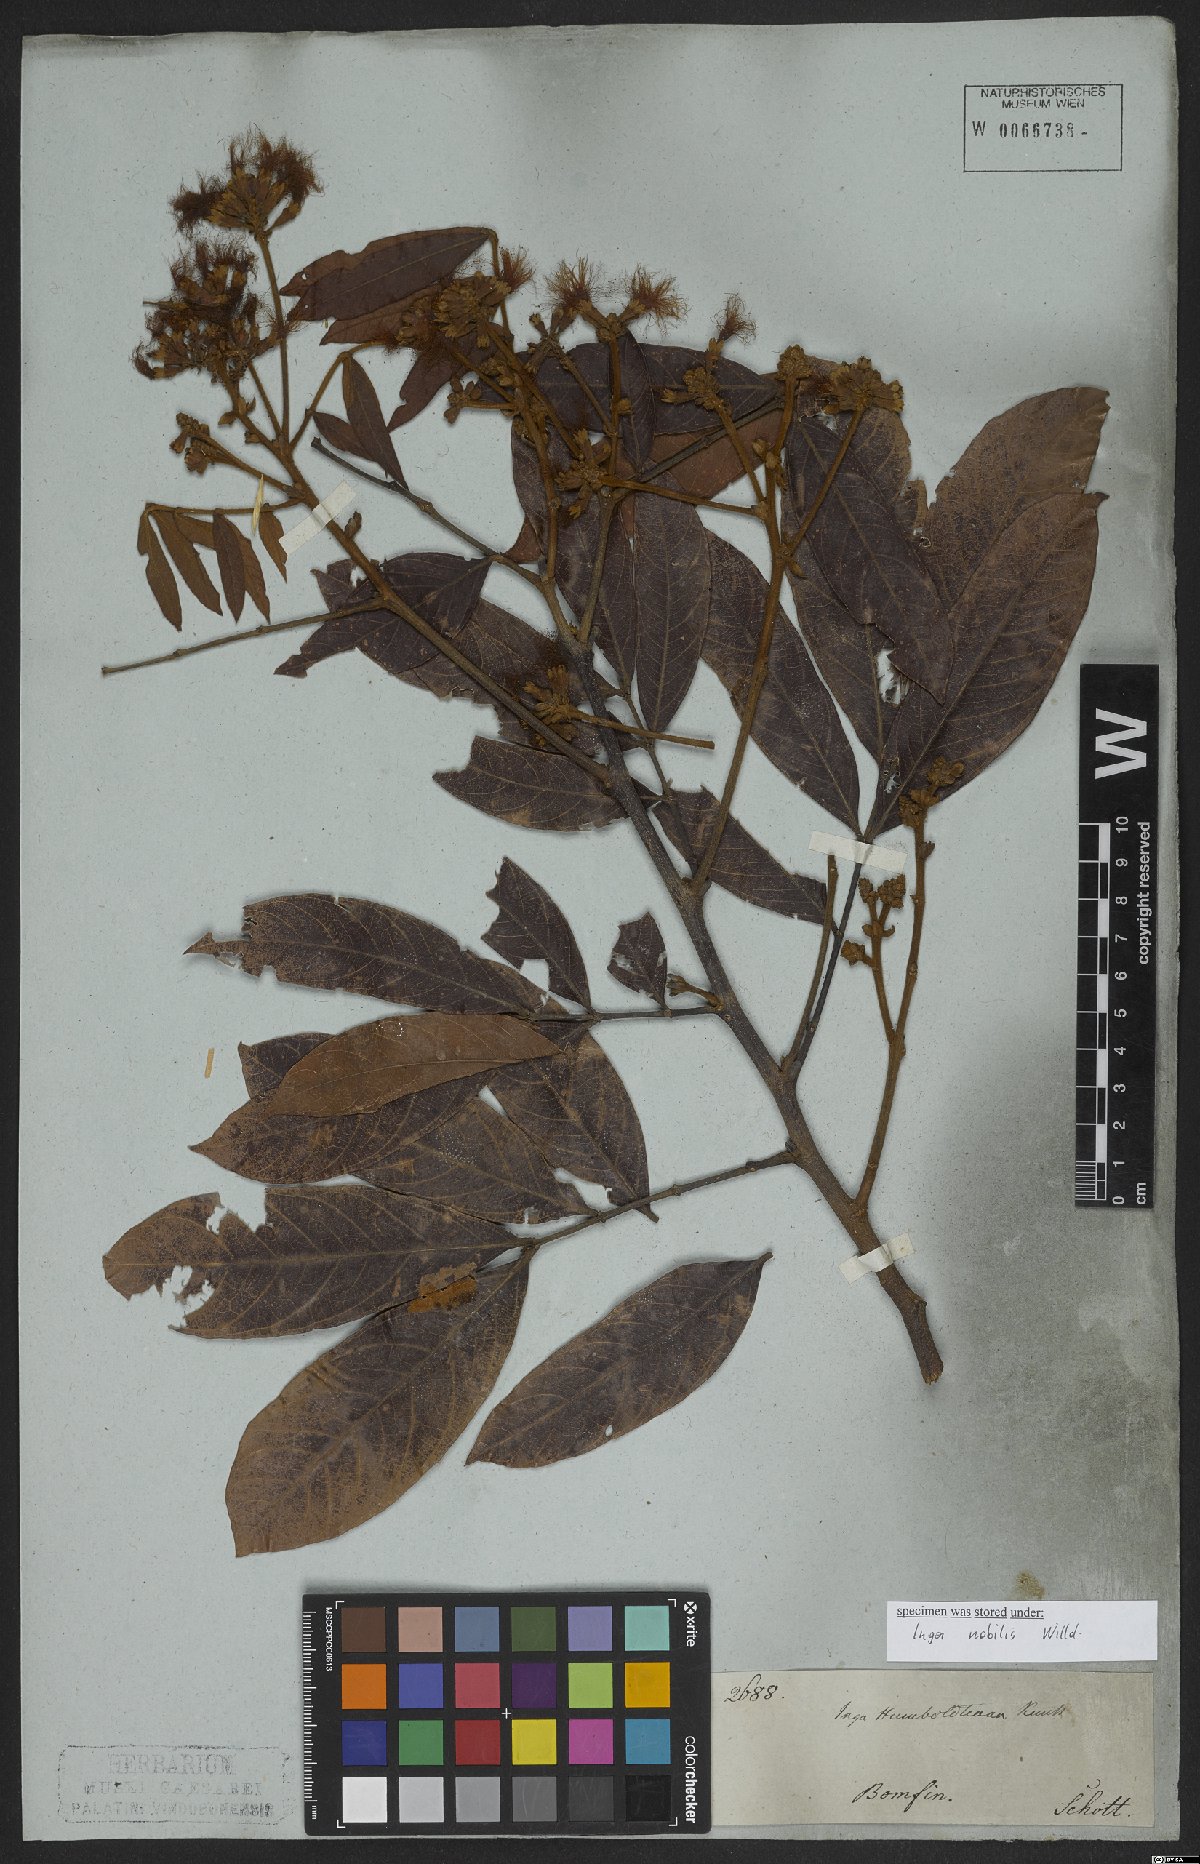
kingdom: Plantae
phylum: Tracheophyta
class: Magnoliopsida
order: Fabales
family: Fabaceae
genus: Inga
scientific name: Inga nobilis
